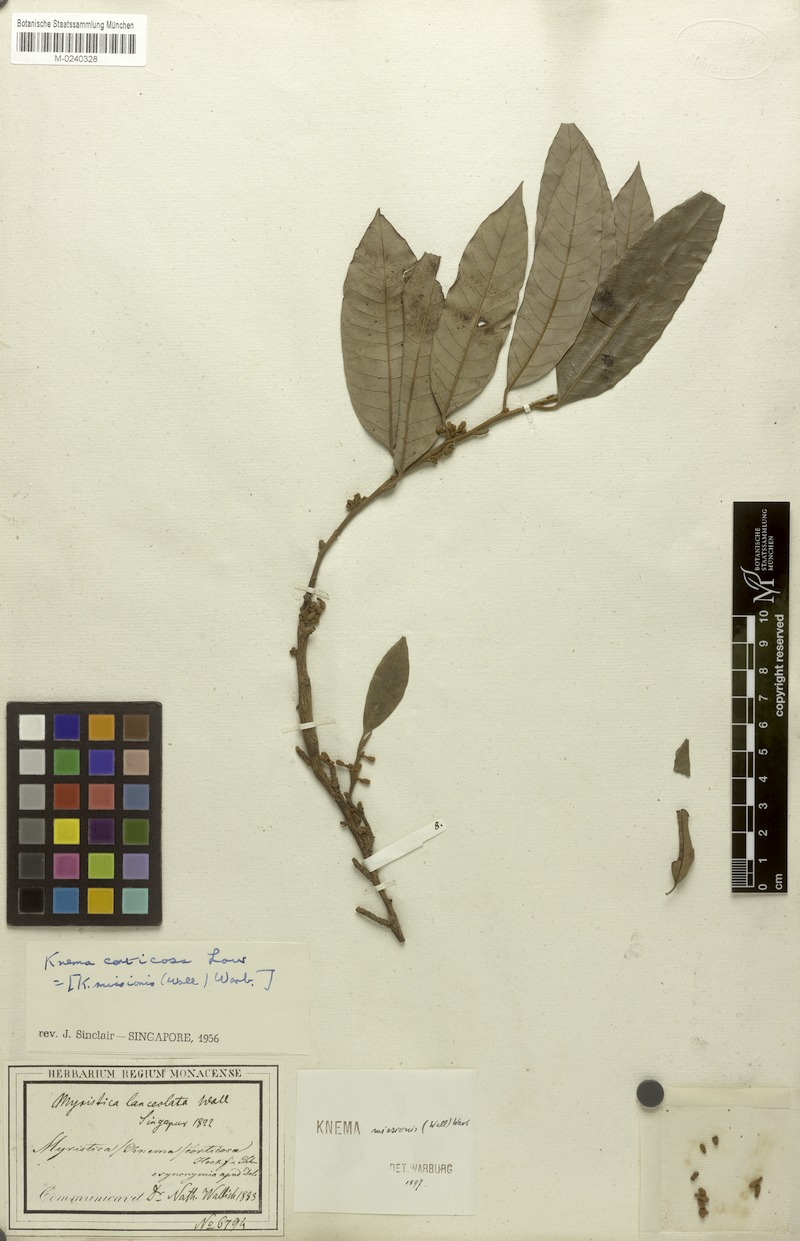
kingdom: Plantae
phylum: Tracheophyta
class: Magnoliopsida
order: Magnoliales
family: Myristicaceae
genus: Knema
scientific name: Knema globularia
